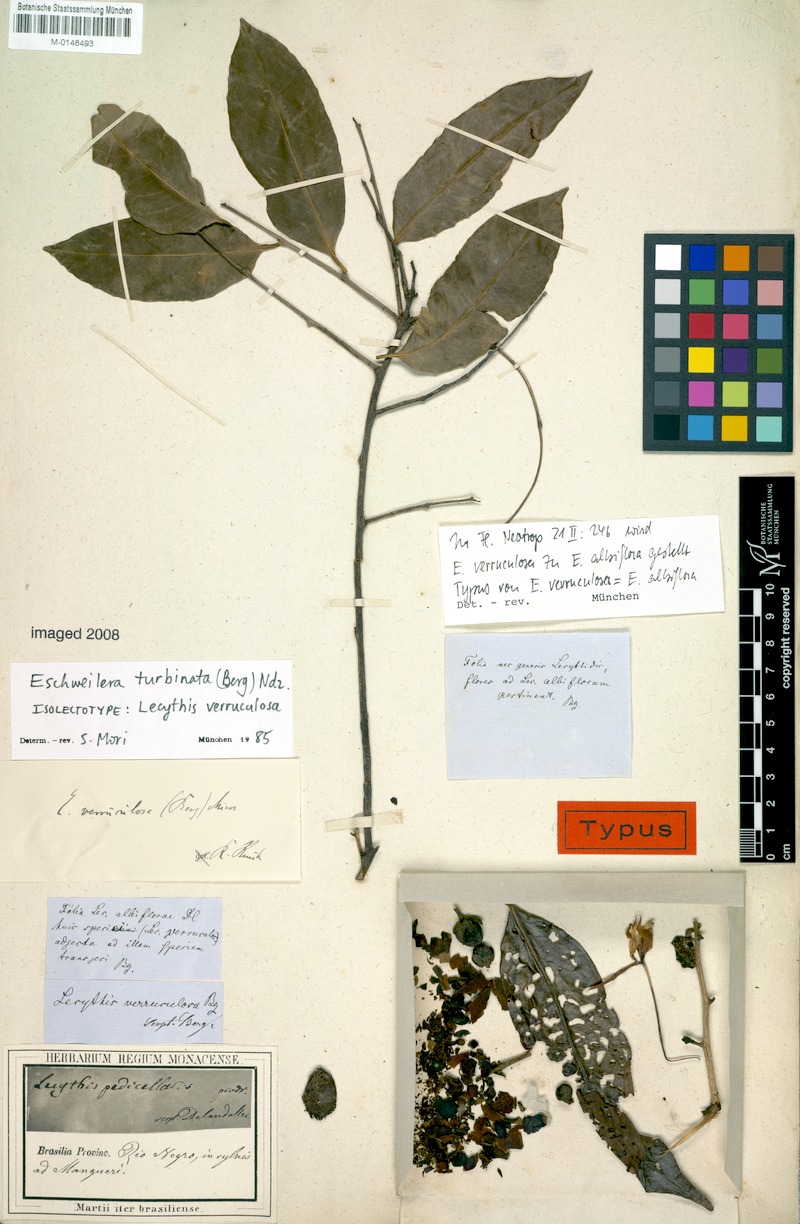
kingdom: Plantae
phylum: Tracheophyta
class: Magnoliopsida
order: Ericales
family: Lecythidaceae
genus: Eschweilera
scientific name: Eschweilera albiflora
